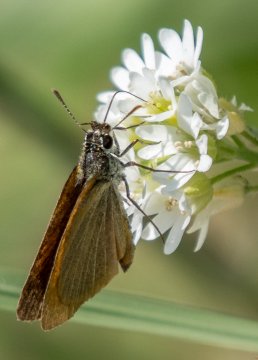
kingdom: Animalia
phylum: Arthropoda
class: Insecta
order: Lepidoptera
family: Hesperiidae
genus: Euphyes
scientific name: Euphyes dion
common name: Dion Skipper
